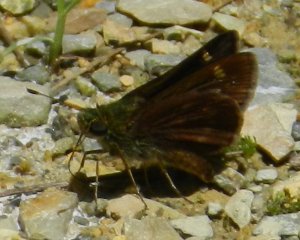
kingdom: Animalia
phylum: Arthropoda
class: Insecta
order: Lepidoptera
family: Hesperiidae
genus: Euphyes
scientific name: Euphyes vestris
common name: Dun Skipper
